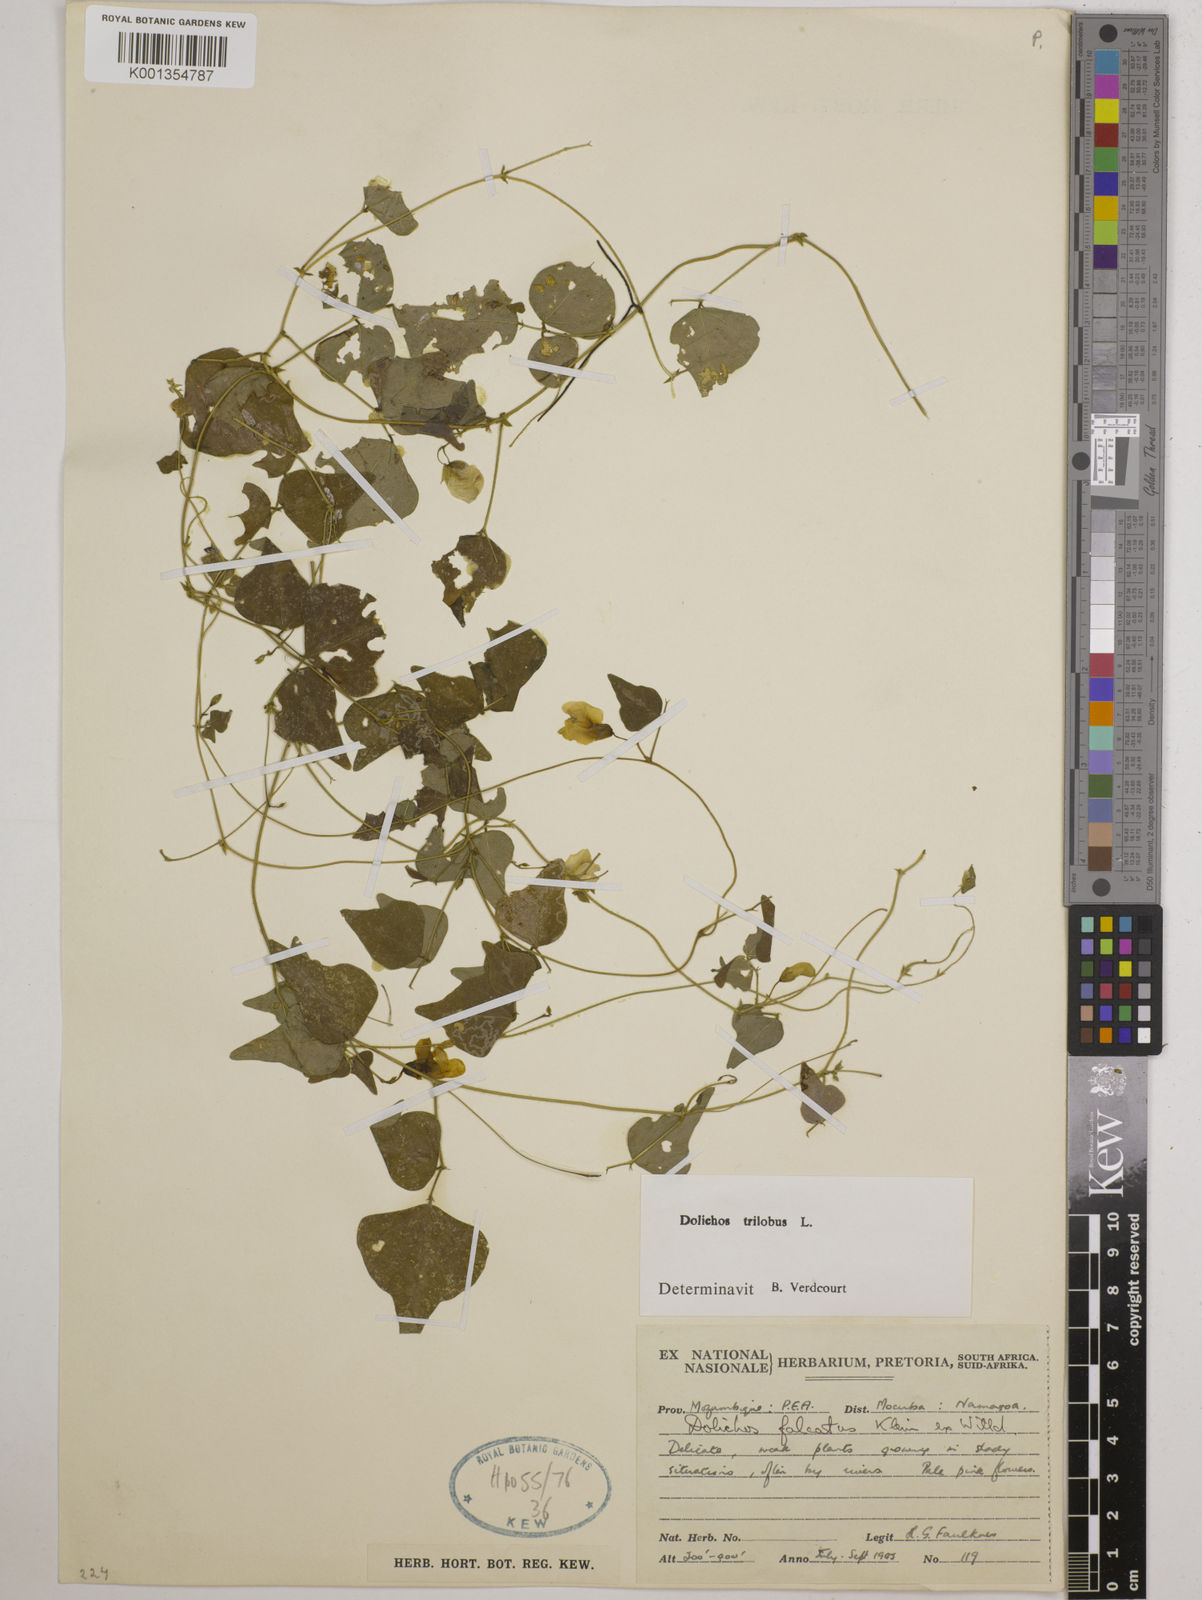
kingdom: Plantae
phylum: Tracheophyta
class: Magnoliopsida
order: Fabales
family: Fabaceae
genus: Dolichos
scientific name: Dolichos
